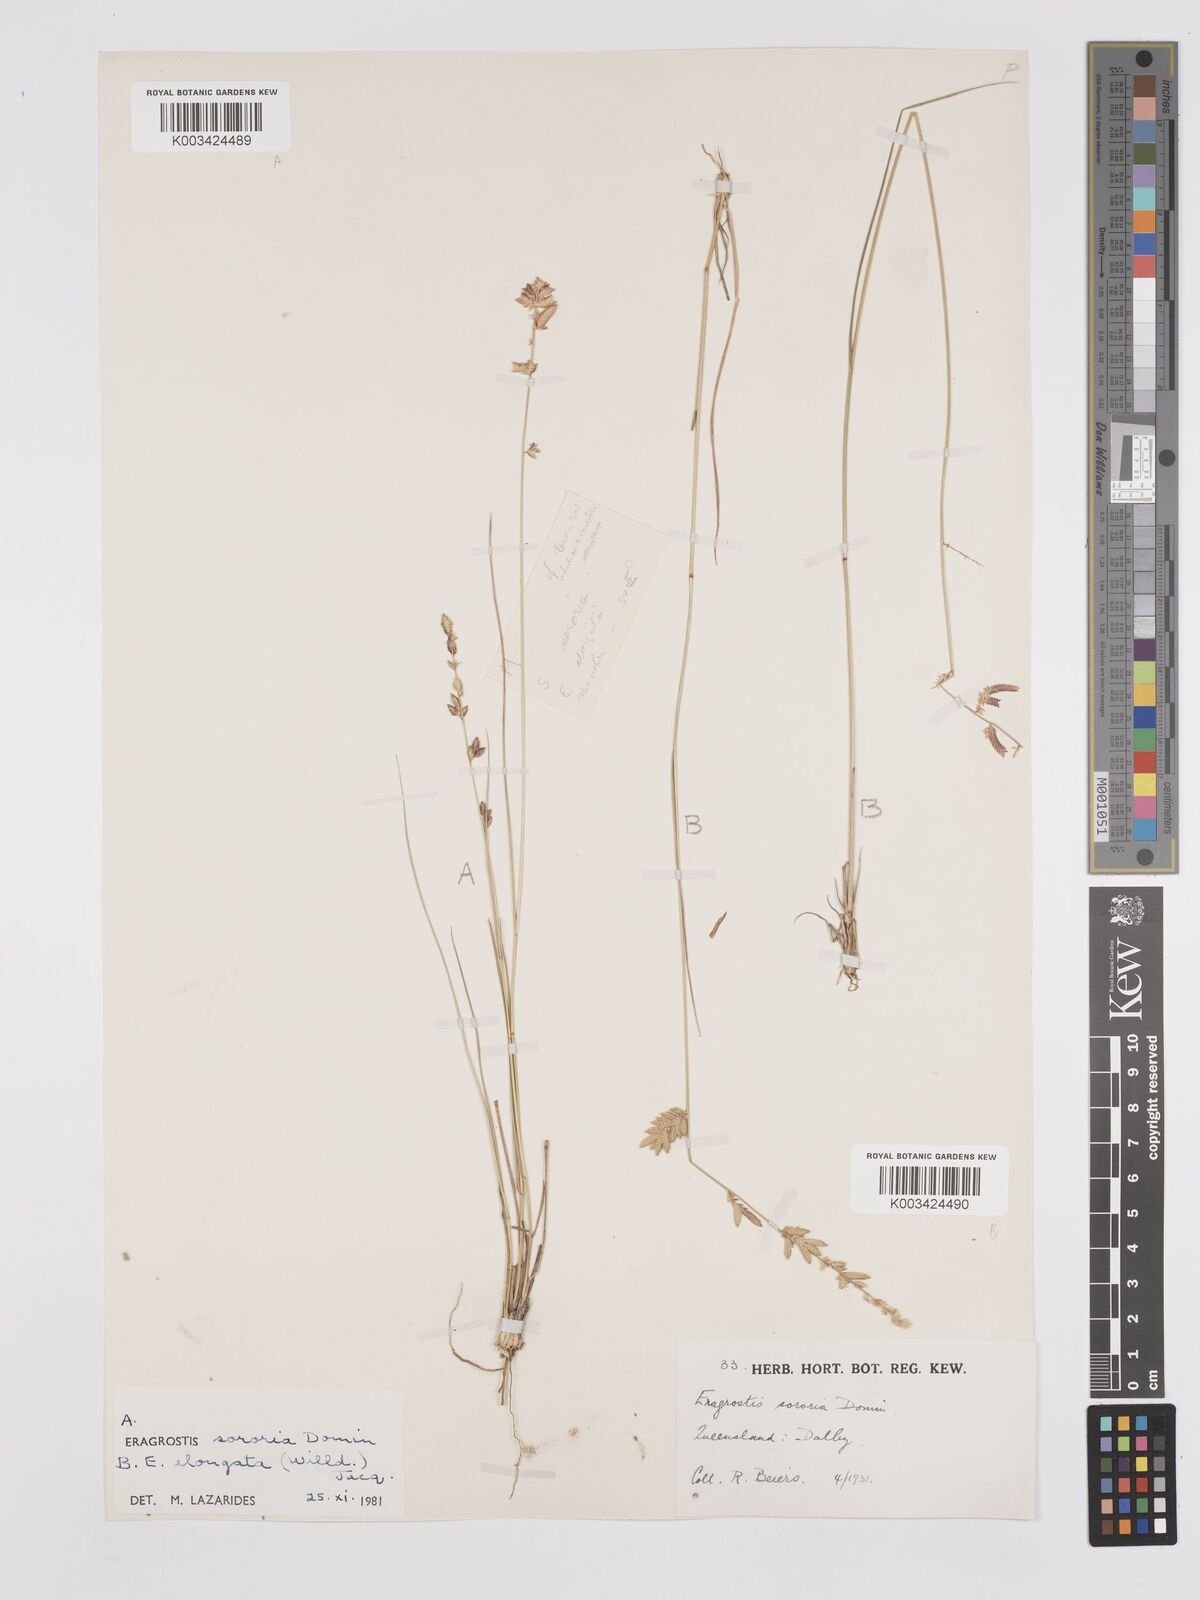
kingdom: Plantae
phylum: Tracheophyta
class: Liliopsida
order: Poales
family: Poaceae
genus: Eragrostis
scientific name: Eragrostis elongata
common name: Long lovegrass
